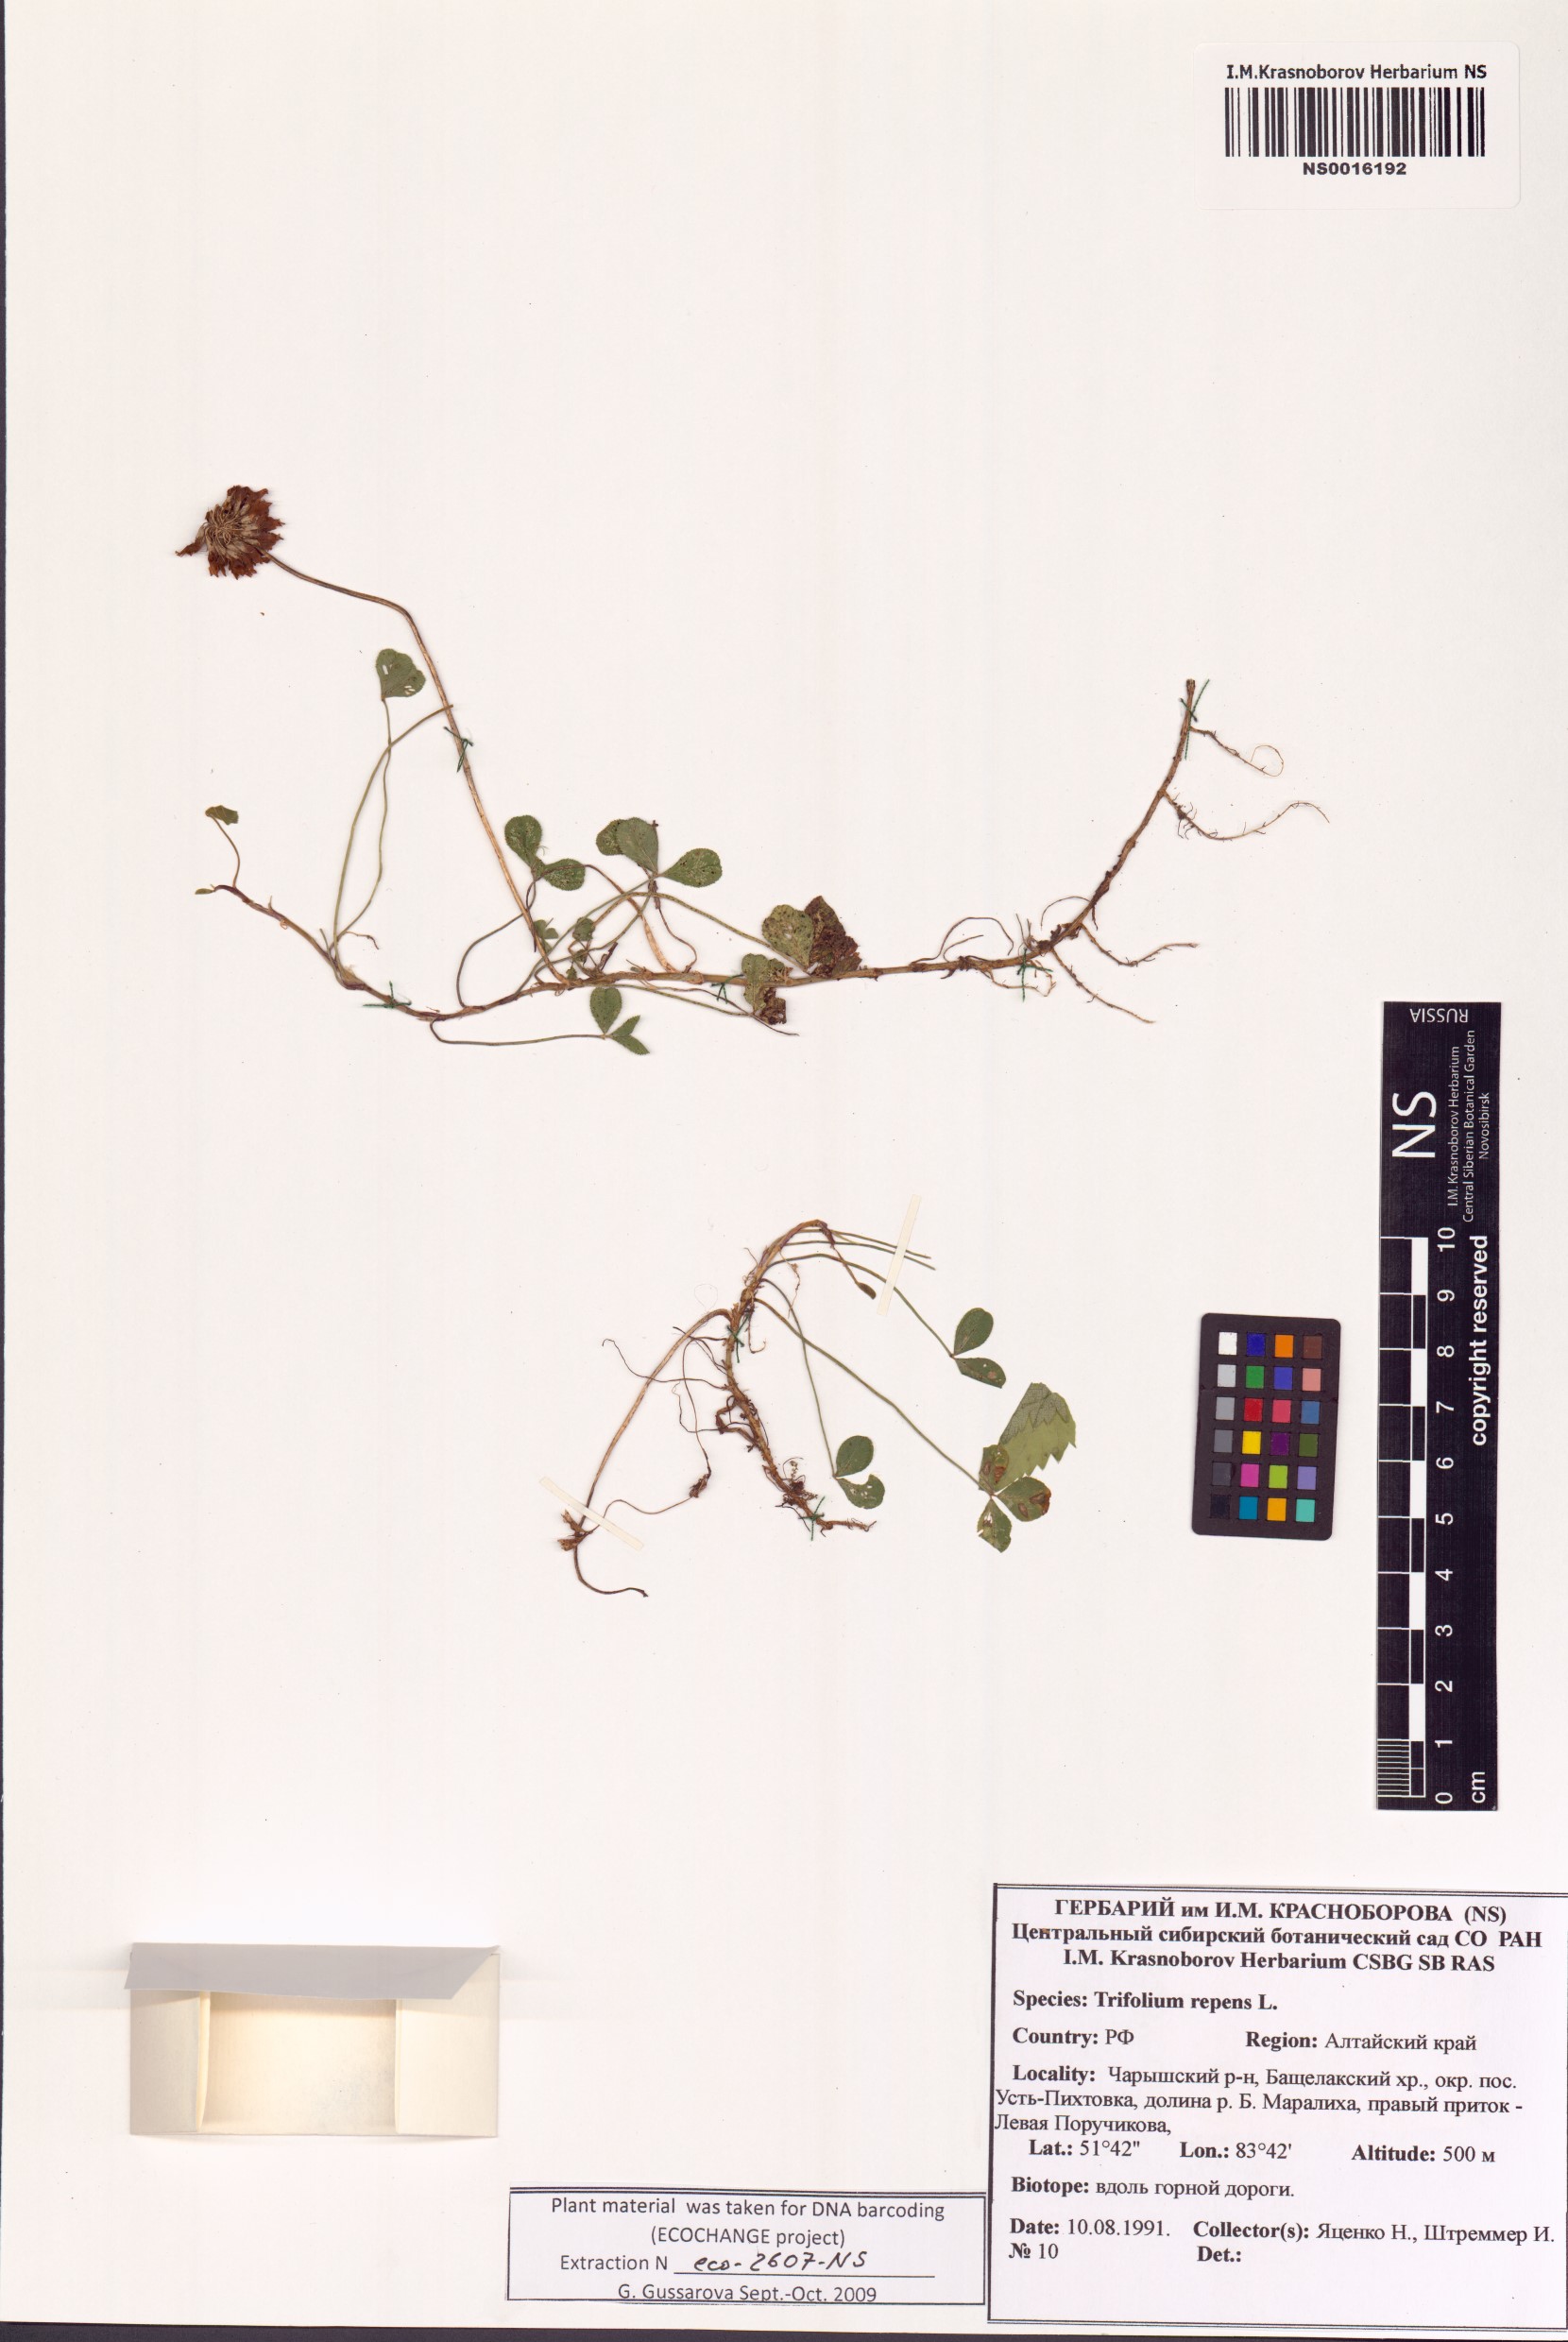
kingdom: Plantae
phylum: Tracheophyta
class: Magnoliopsida
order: Fabales
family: Fabaceae
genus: Trifolium
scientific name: Trifolium repens
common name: White clover
